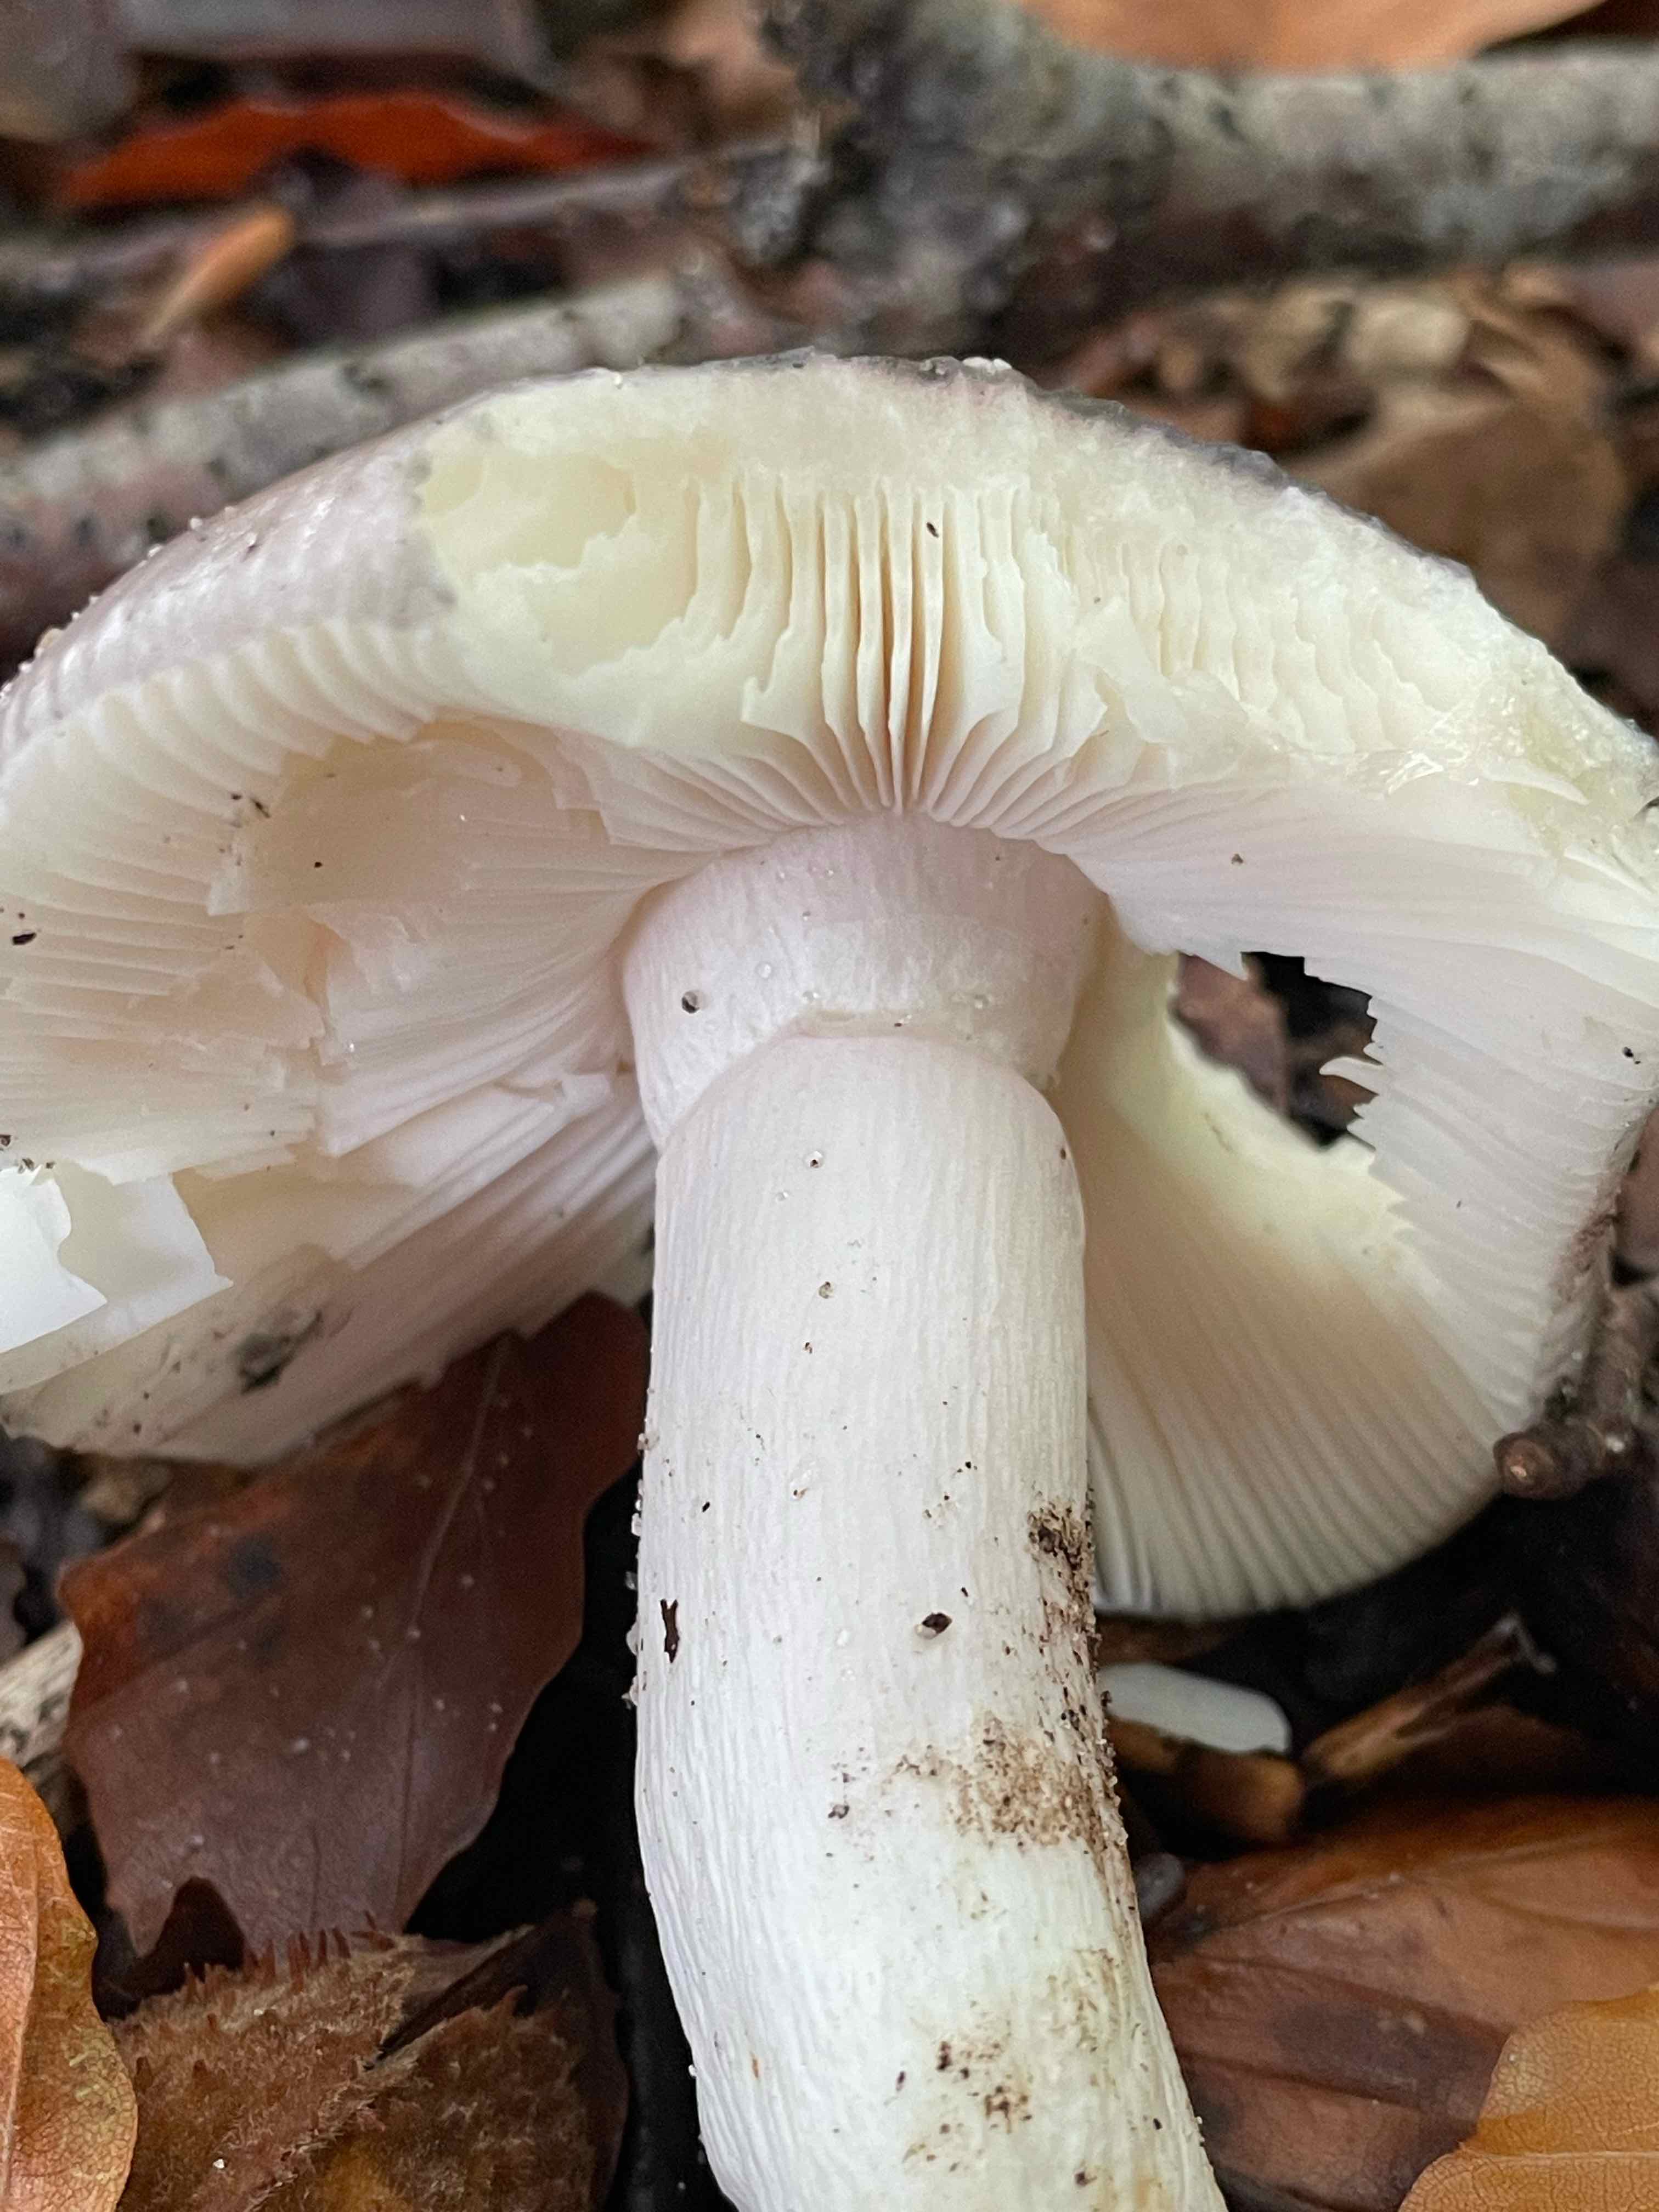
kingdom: Fungi
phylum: Basidiomycota
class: Agaricomycetes
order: Russulales
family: Russulaceae
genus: Russula
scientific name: Russula
